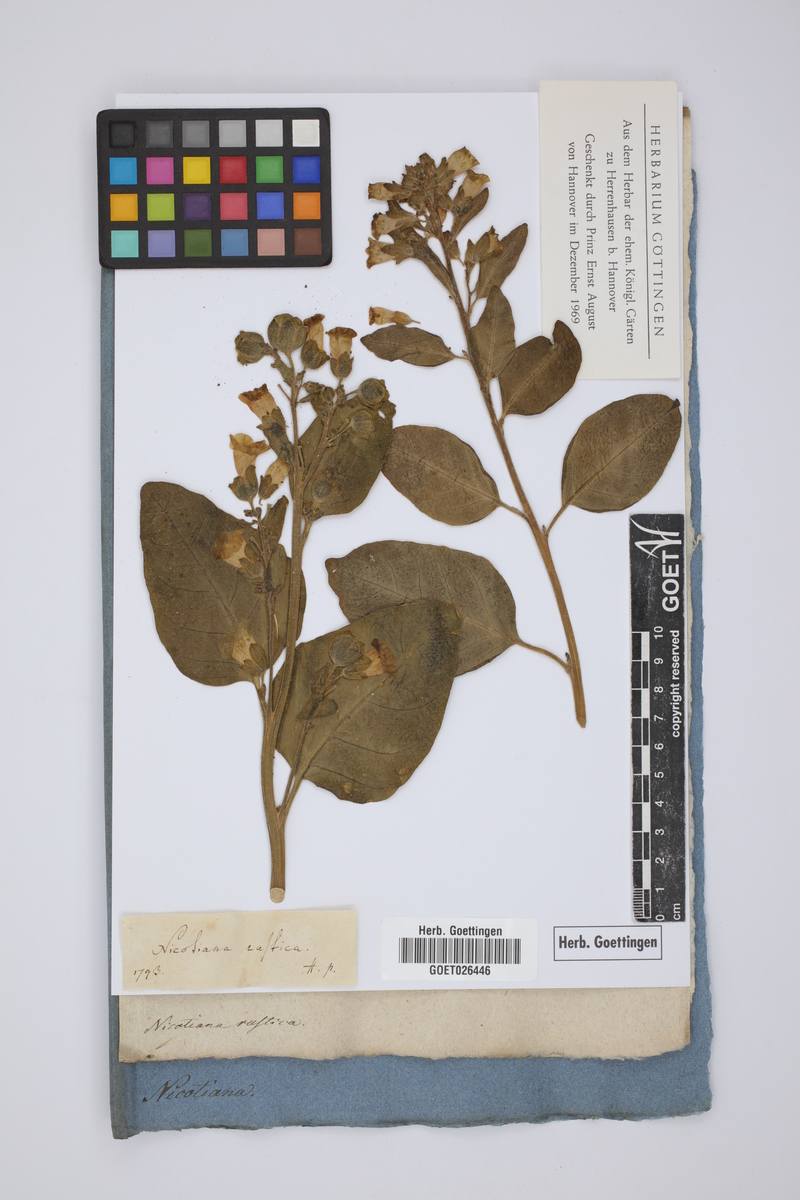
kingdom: Plantae
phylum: Tracheophyta
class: Magnoliopsida
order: Solanales
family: Solanaceae
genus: Nicotiana
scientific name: Nicotiana rustica
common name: Wild tobacco
